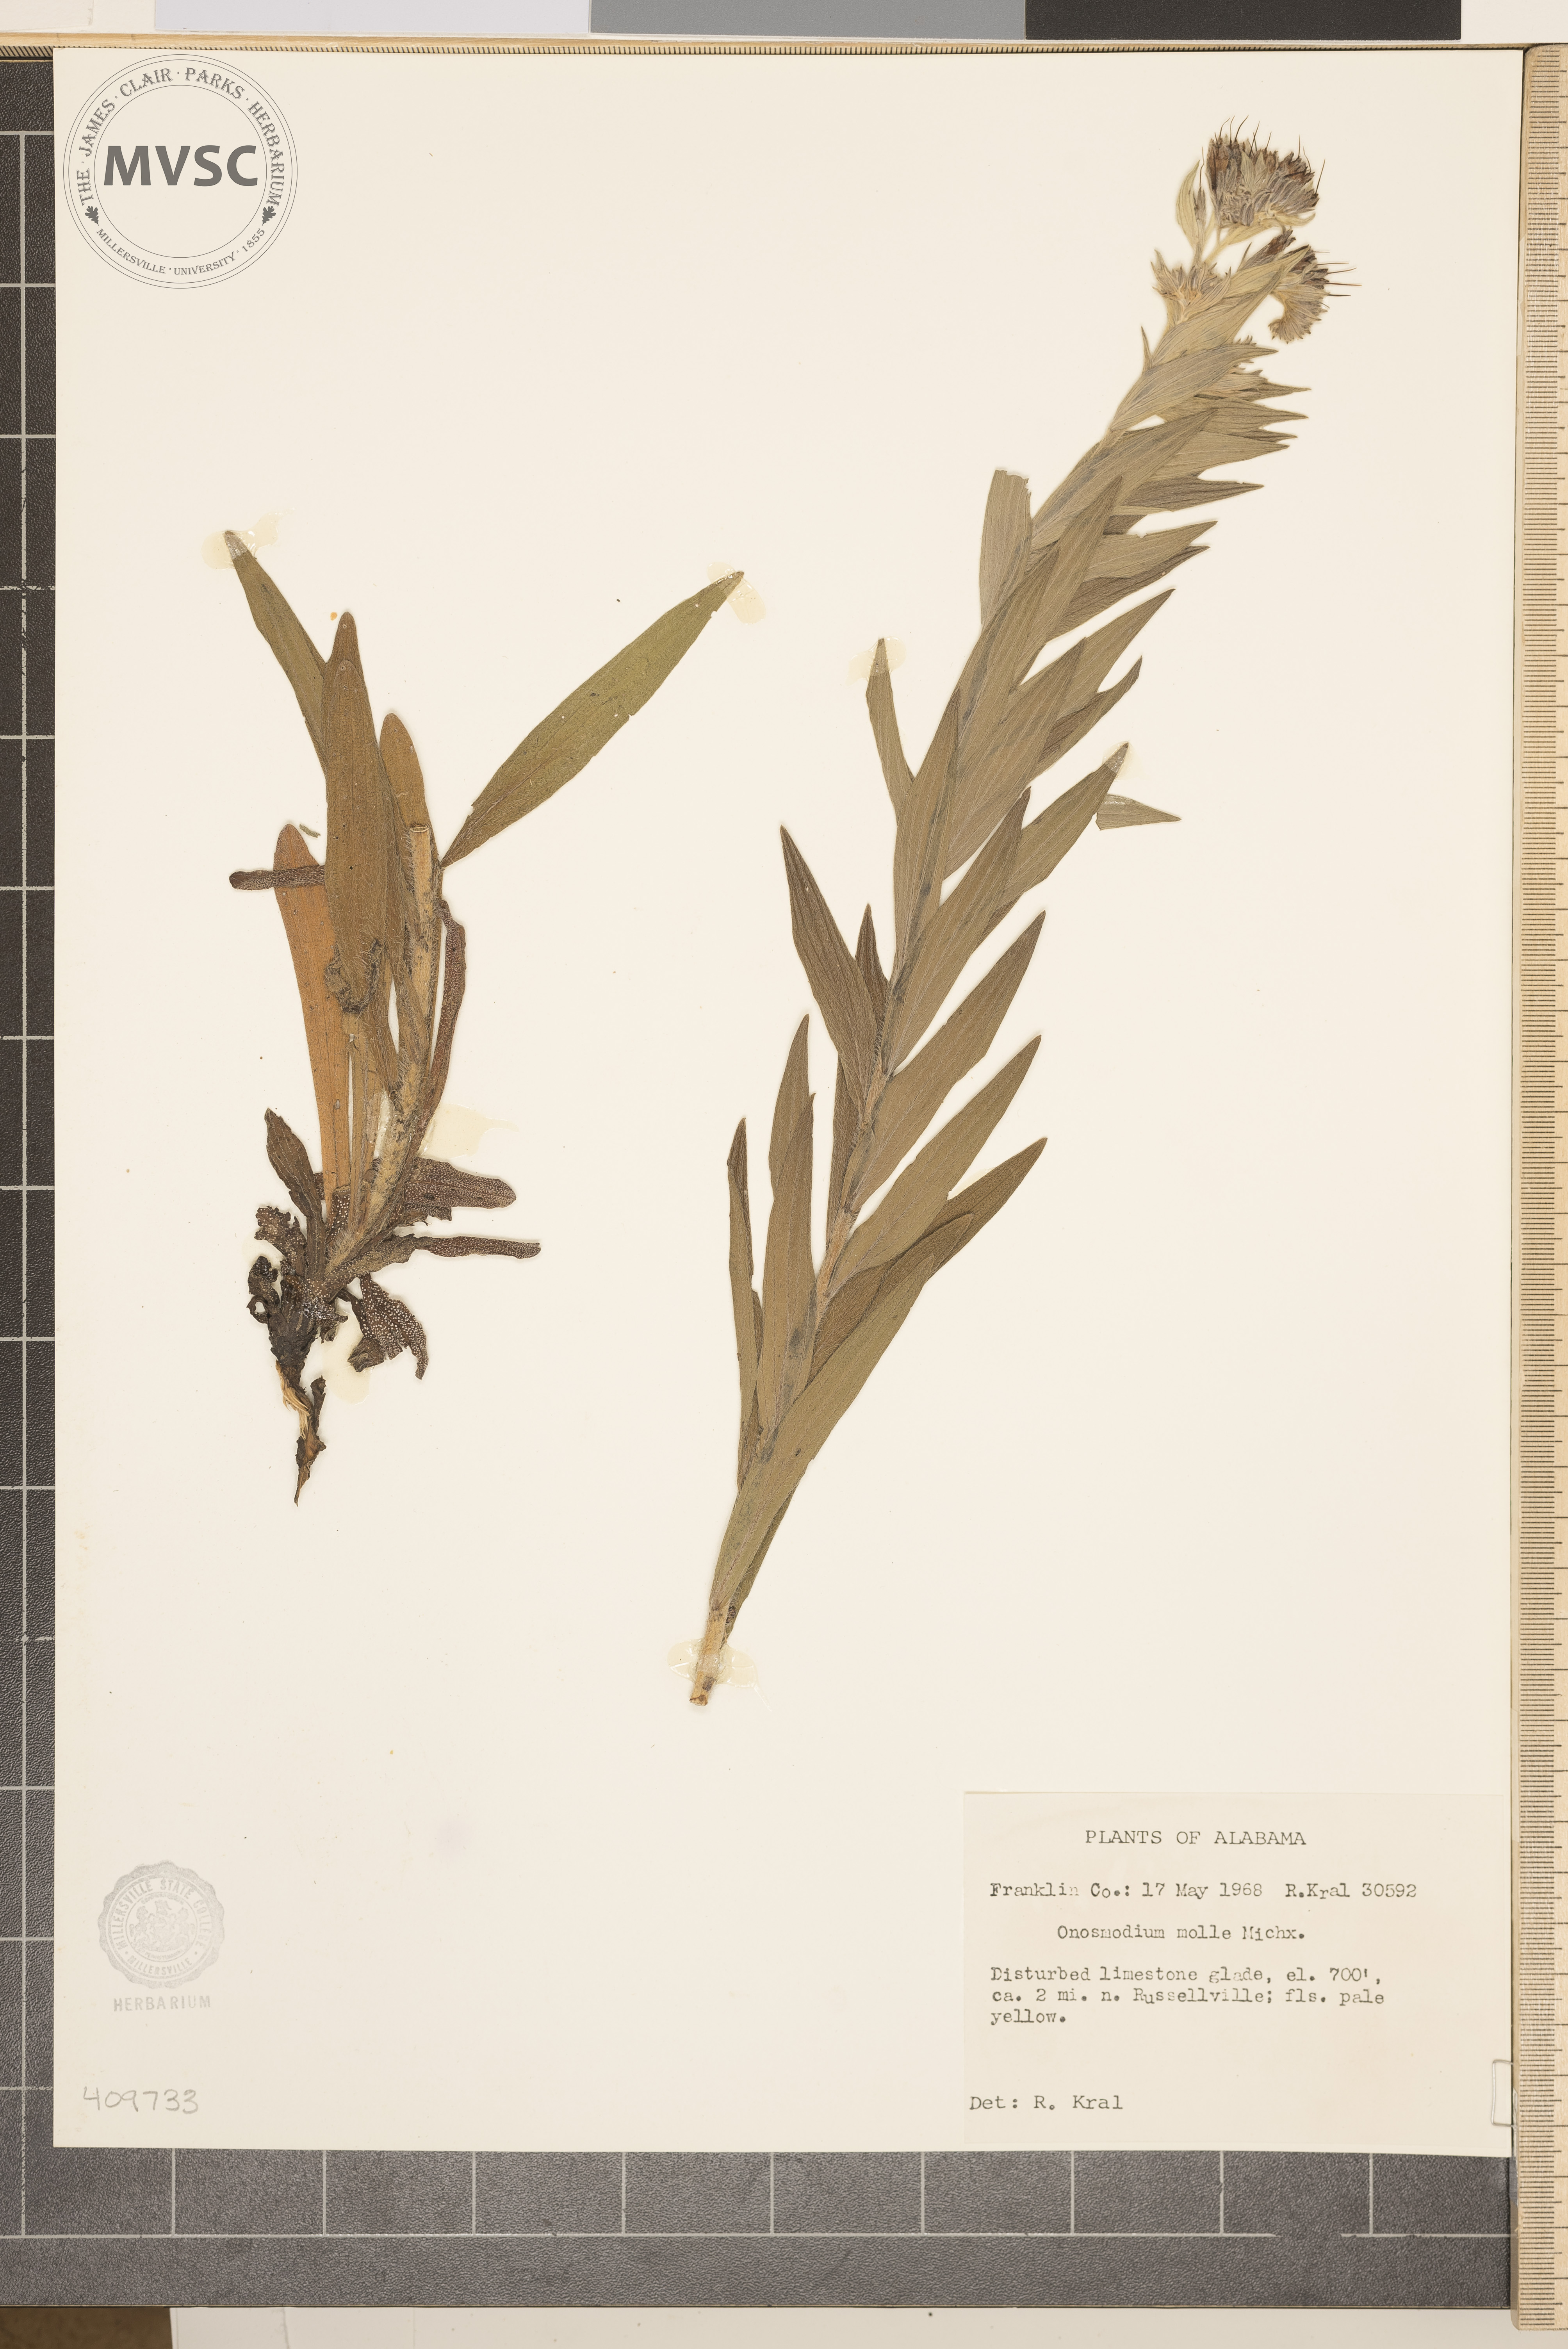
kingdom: Plantae
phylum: Tracheophyta
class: Magnoliopsida
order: Boraginales
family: Boraginaceae
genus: Lithospermum
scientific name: Lithospermum molle
